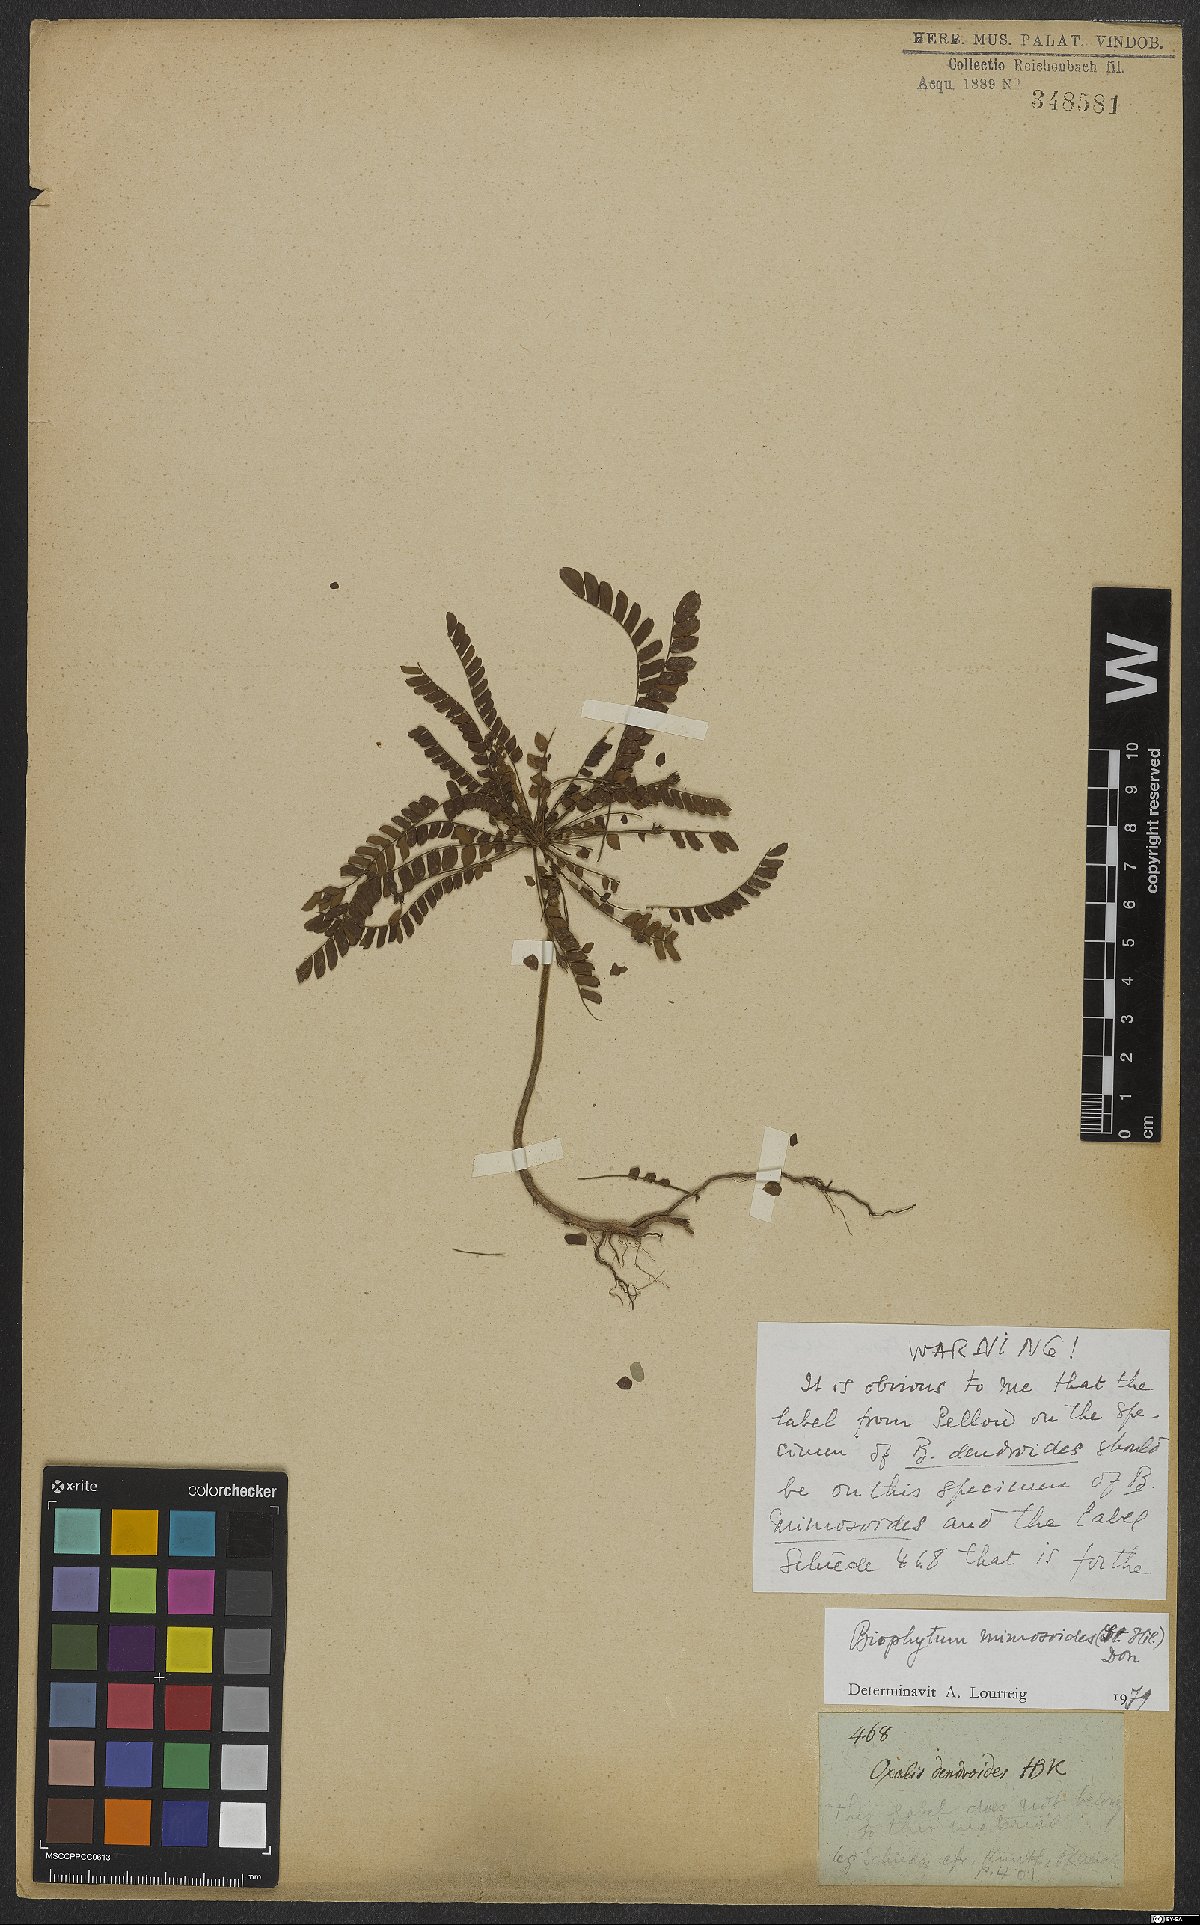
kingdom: Plantae
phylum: Tracheophyta
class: Magnoliopsida
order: Oxalidales
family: Oxalidaceae
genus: Biophytum
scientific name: Biophytum mimosoides
